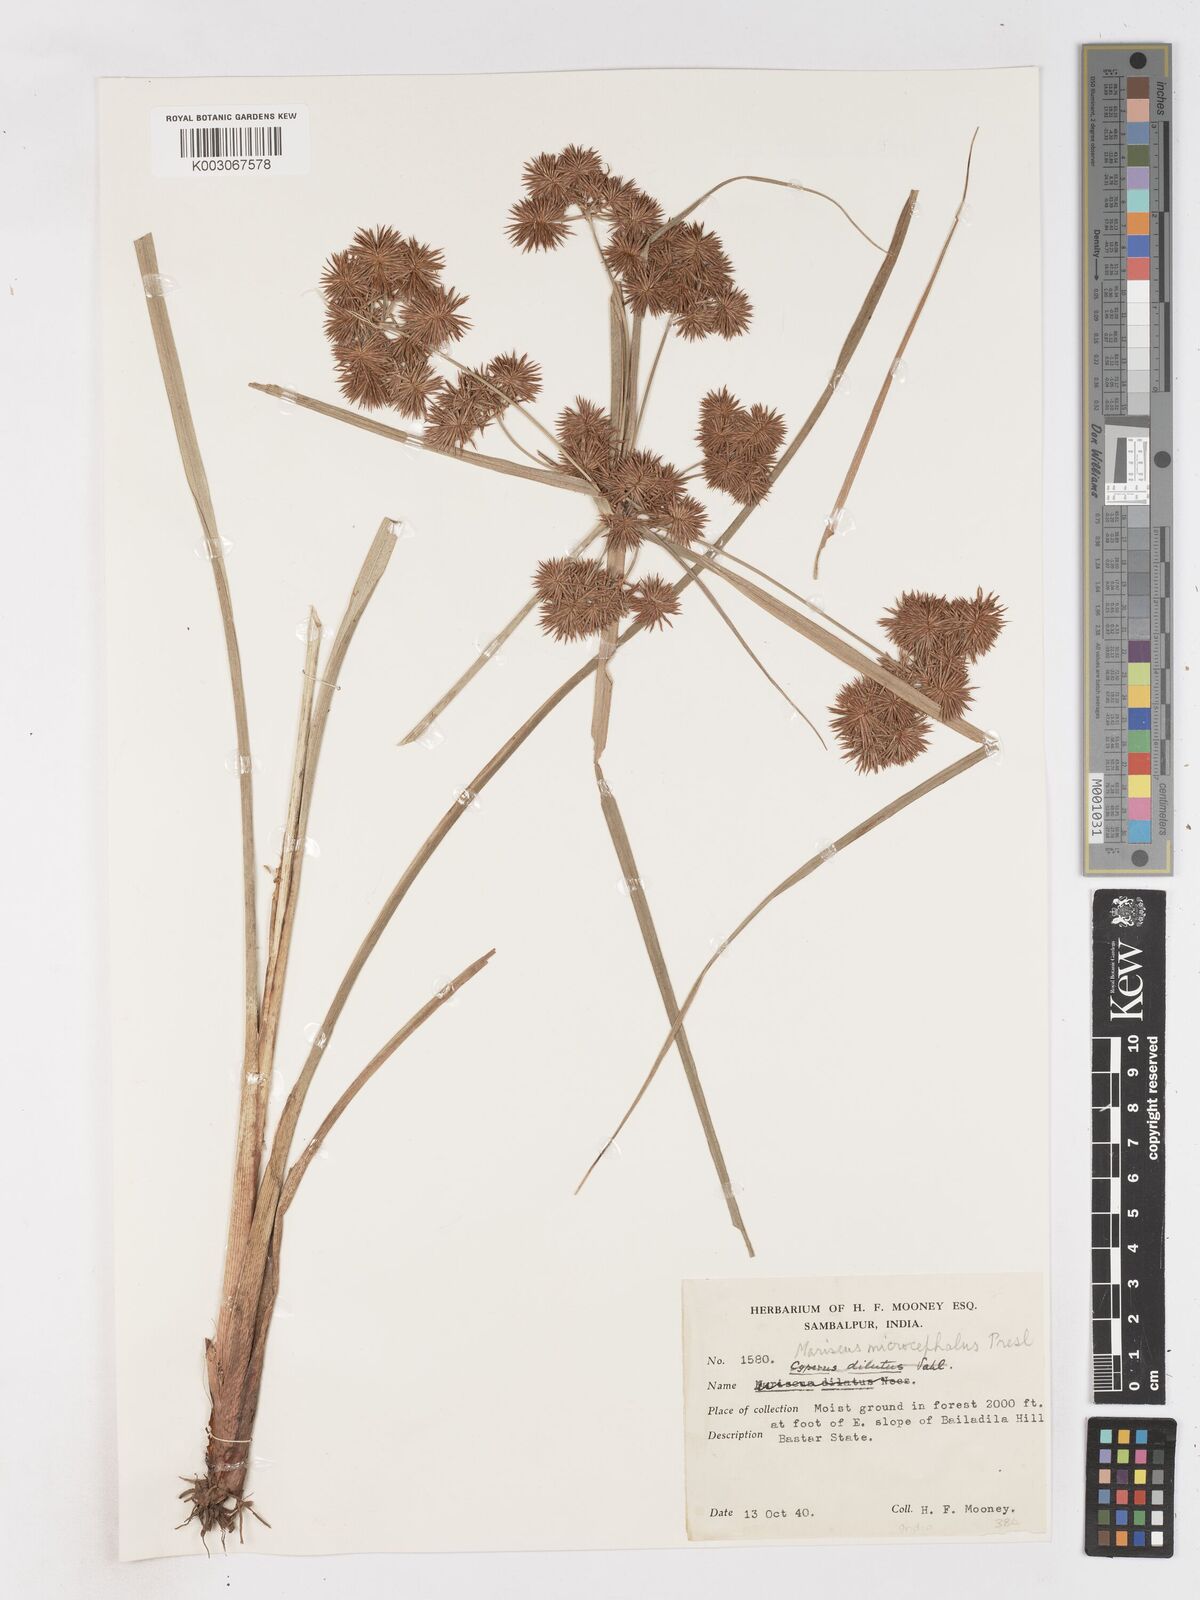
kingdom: Plantae
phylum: Tracheophyta
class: Liliopsida
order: Poales
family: Cyperaceae
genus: Cyperus
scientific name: Cyperus compactus
